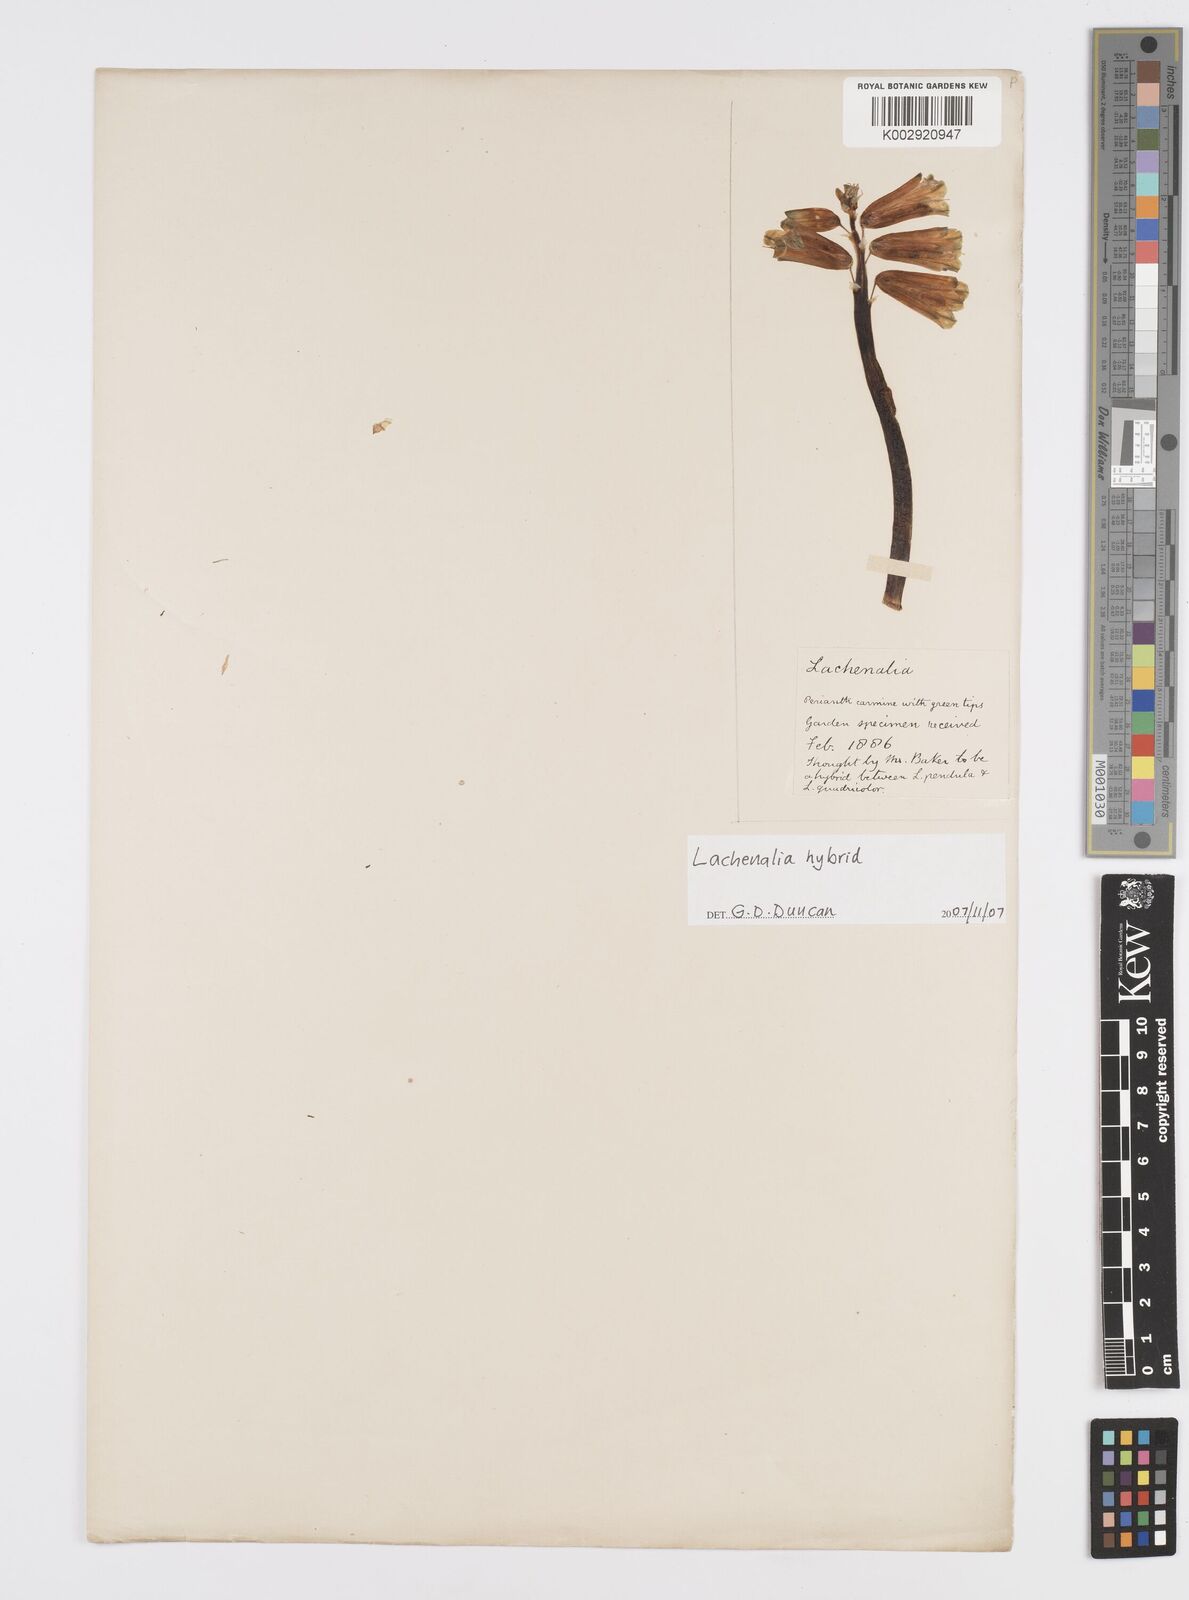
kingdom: Plantae
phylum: Tracheophyta
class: Liliopsida
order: Asparagales
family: Asparagaceae
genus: Lachenalia
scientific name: Lachenalia
